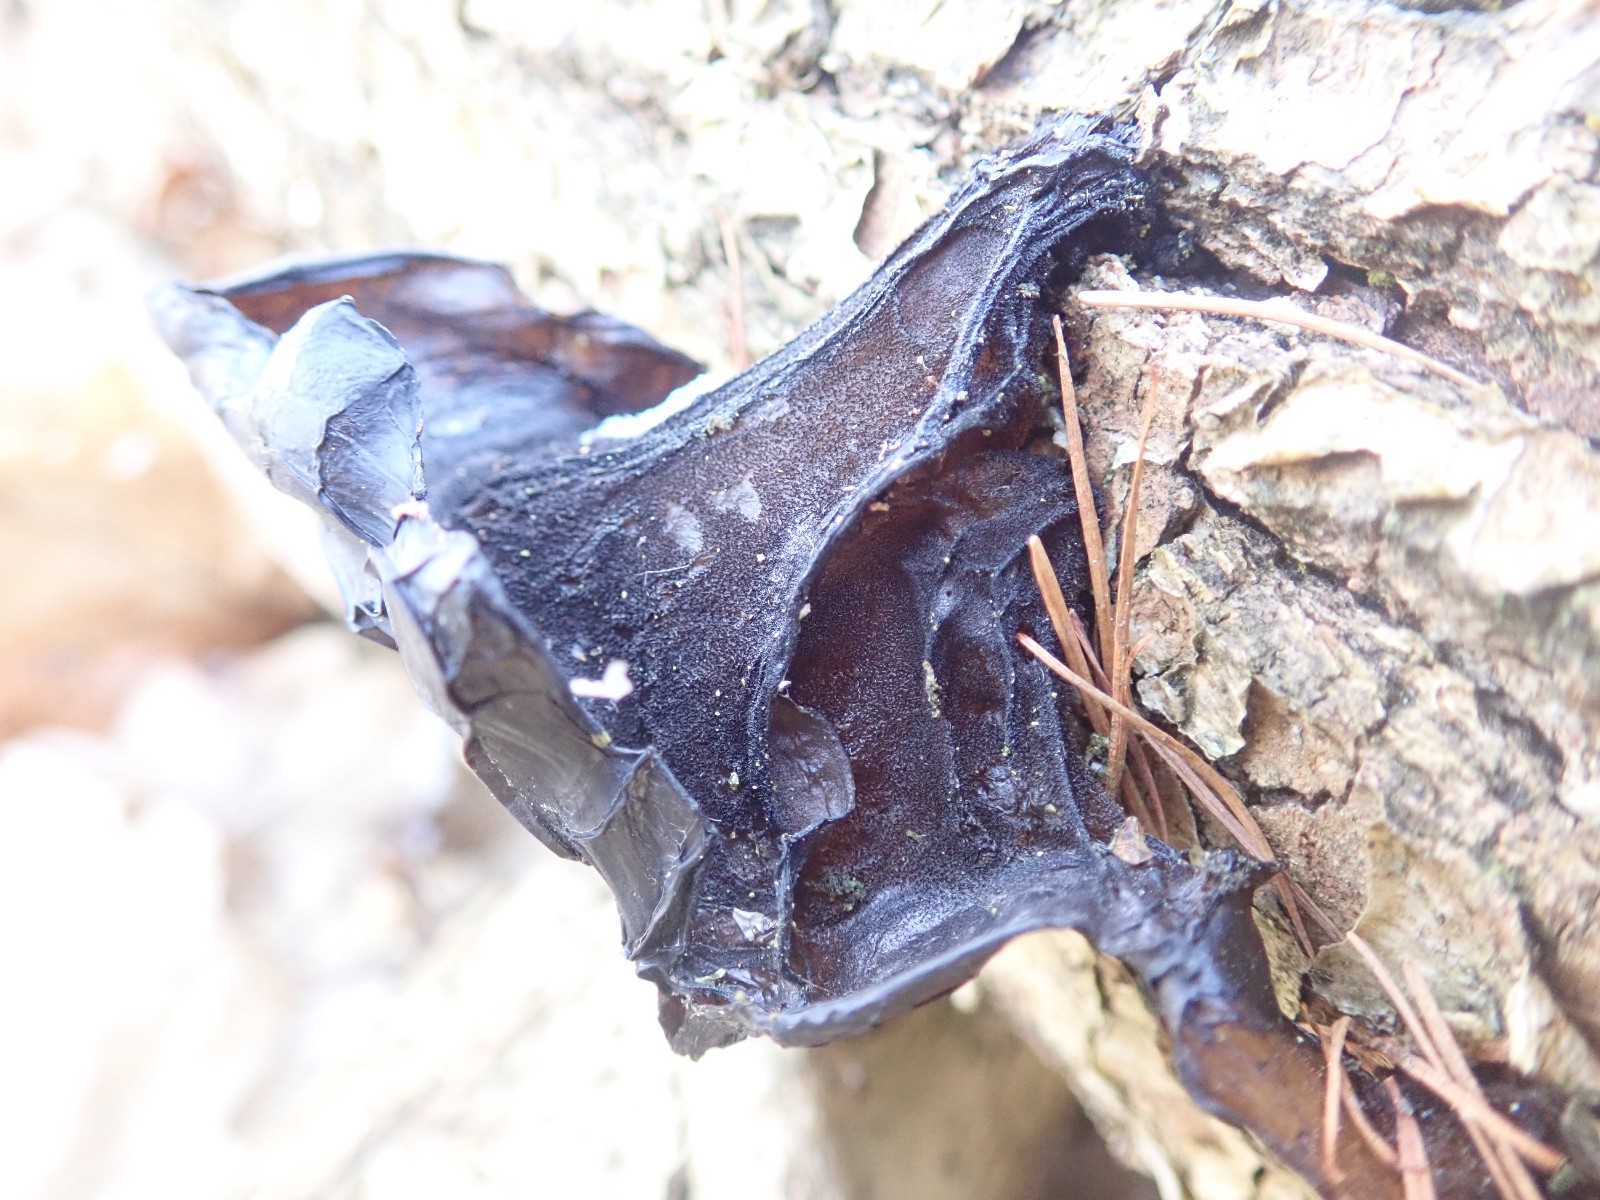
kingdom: Fungi
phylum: Basidiomycota
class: Agaricomycetes
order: Auriculariales
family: Auriculariaceae
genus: Exidia
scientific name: Exidia glandulosa
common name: ege-bævretop
